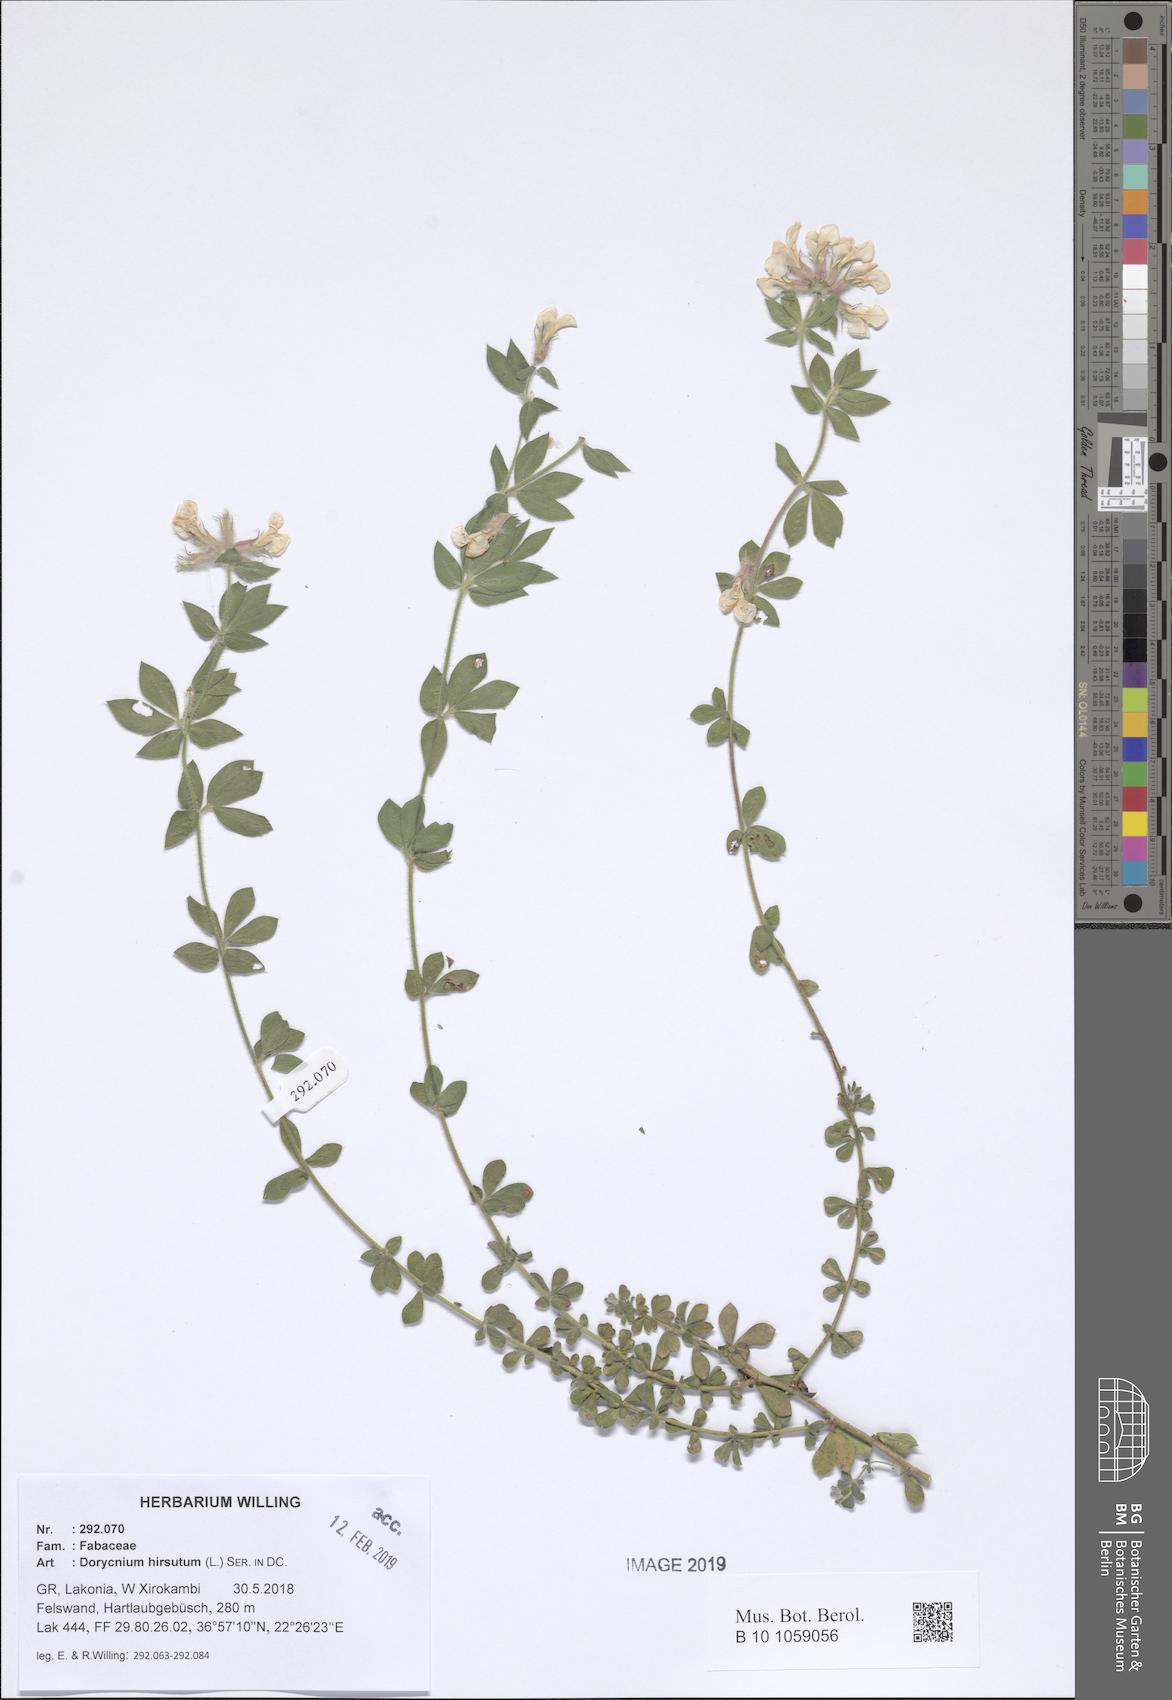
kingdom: Plantae
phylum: Tracheophyta
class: Magnoliopsida
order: Fabales
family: Fabaceae
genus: Lotus
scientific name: Lotus hirsutus
